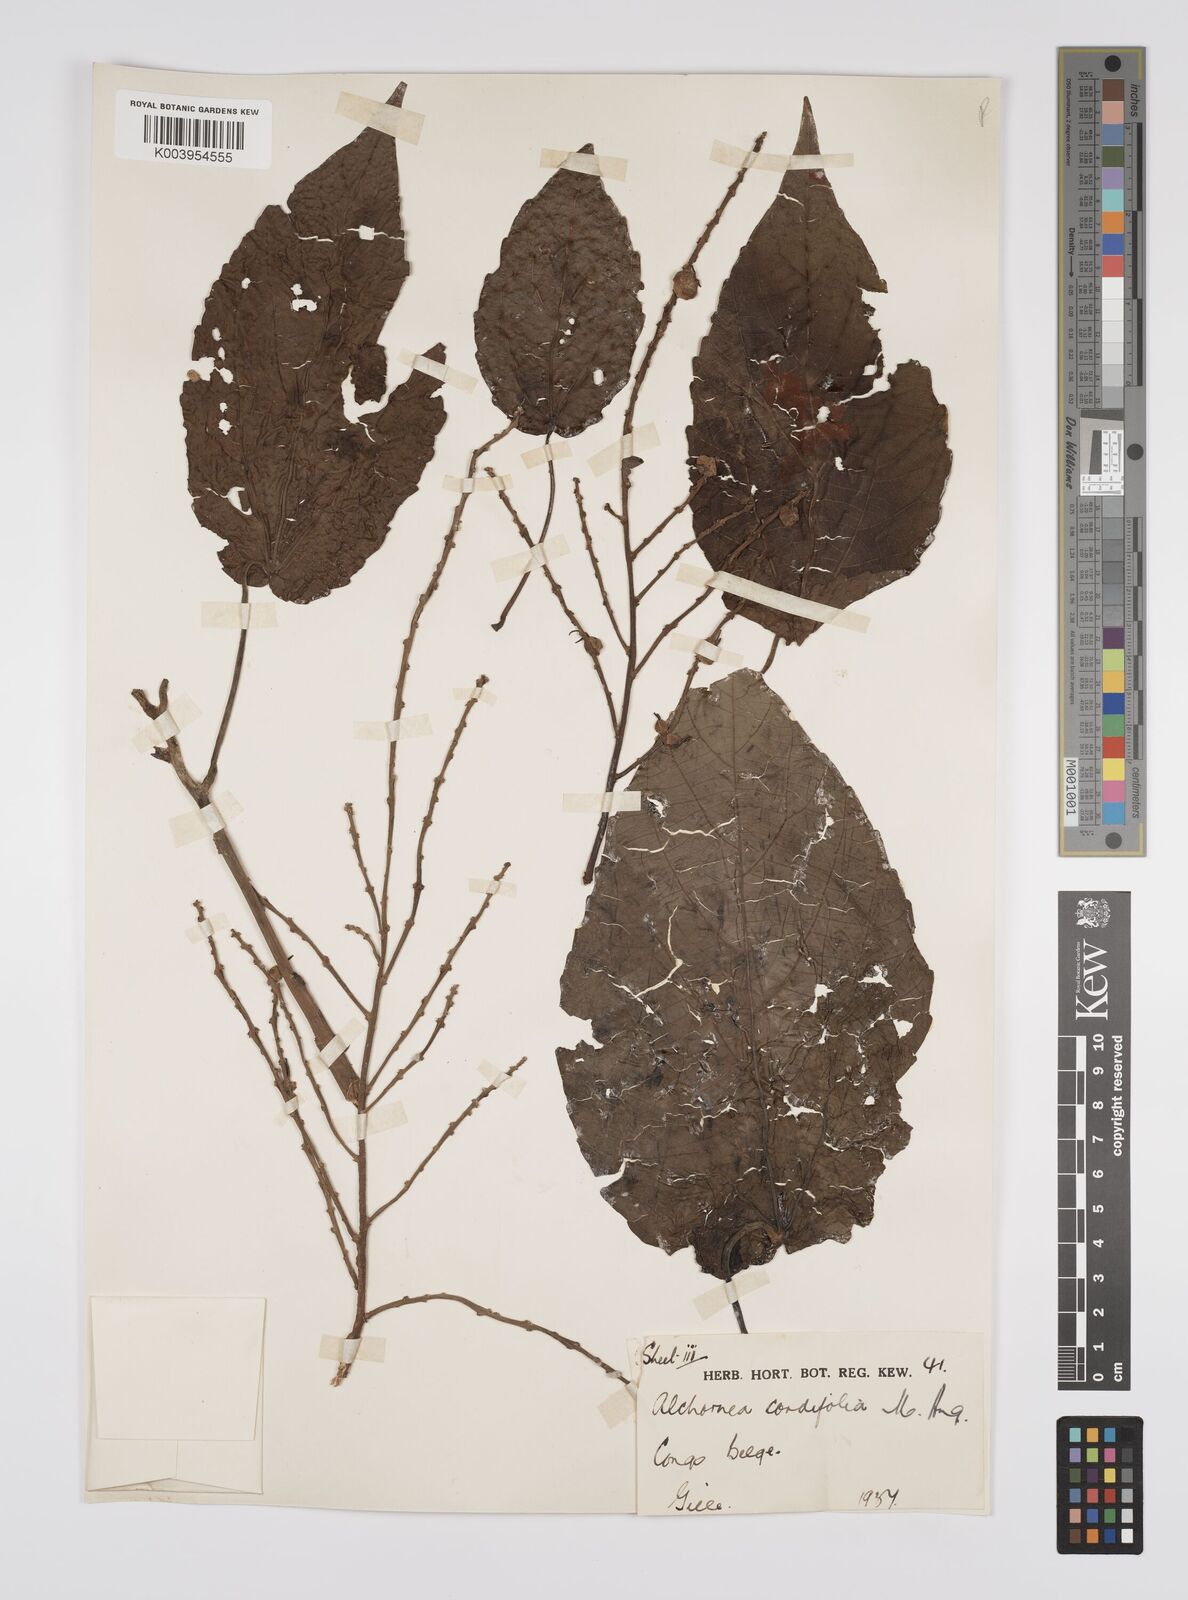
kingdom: Plantae
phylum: Tracheophyta
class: Magnoliopsida
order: Malpighiales
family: Euphorbiaceae
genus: Alchornea
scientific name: Alchornea cordifolia
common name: Christmasbush
